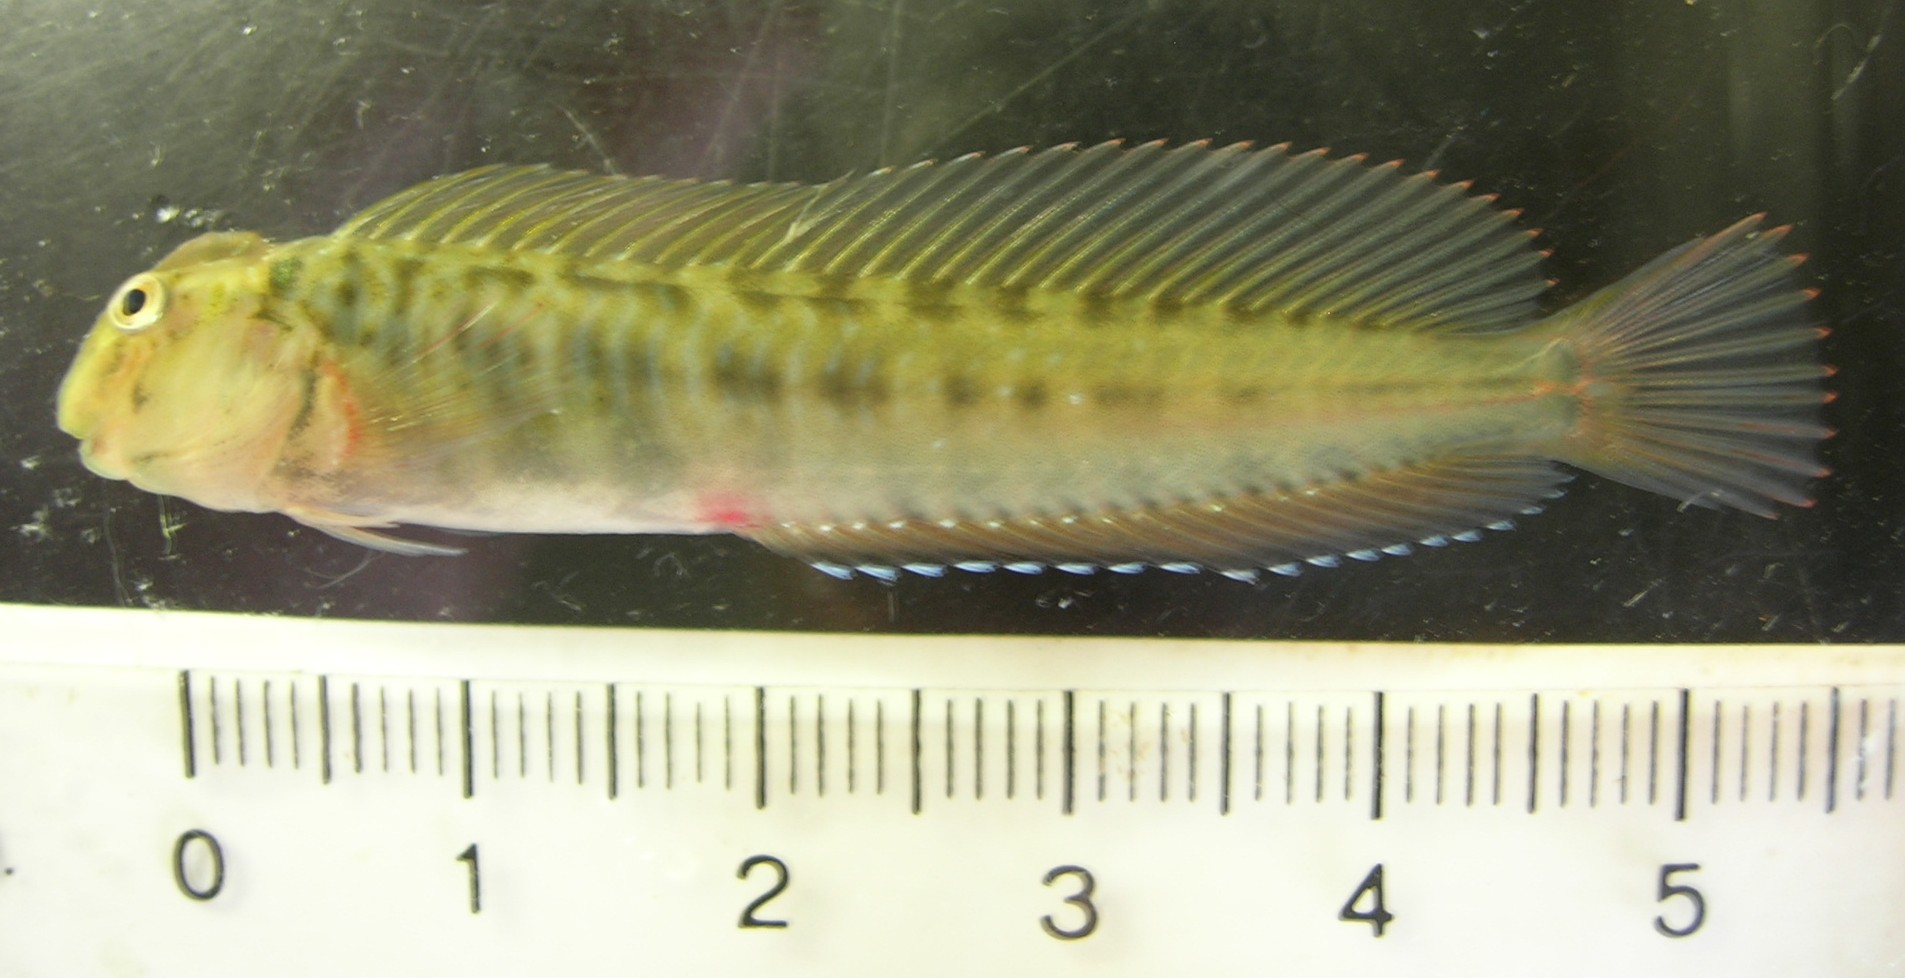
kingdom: Animalia
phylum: Chordata
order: Perciformes
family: Blenniidae
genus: Omobranchus
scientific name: Omobranchus woodi
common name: Kappie blenny
